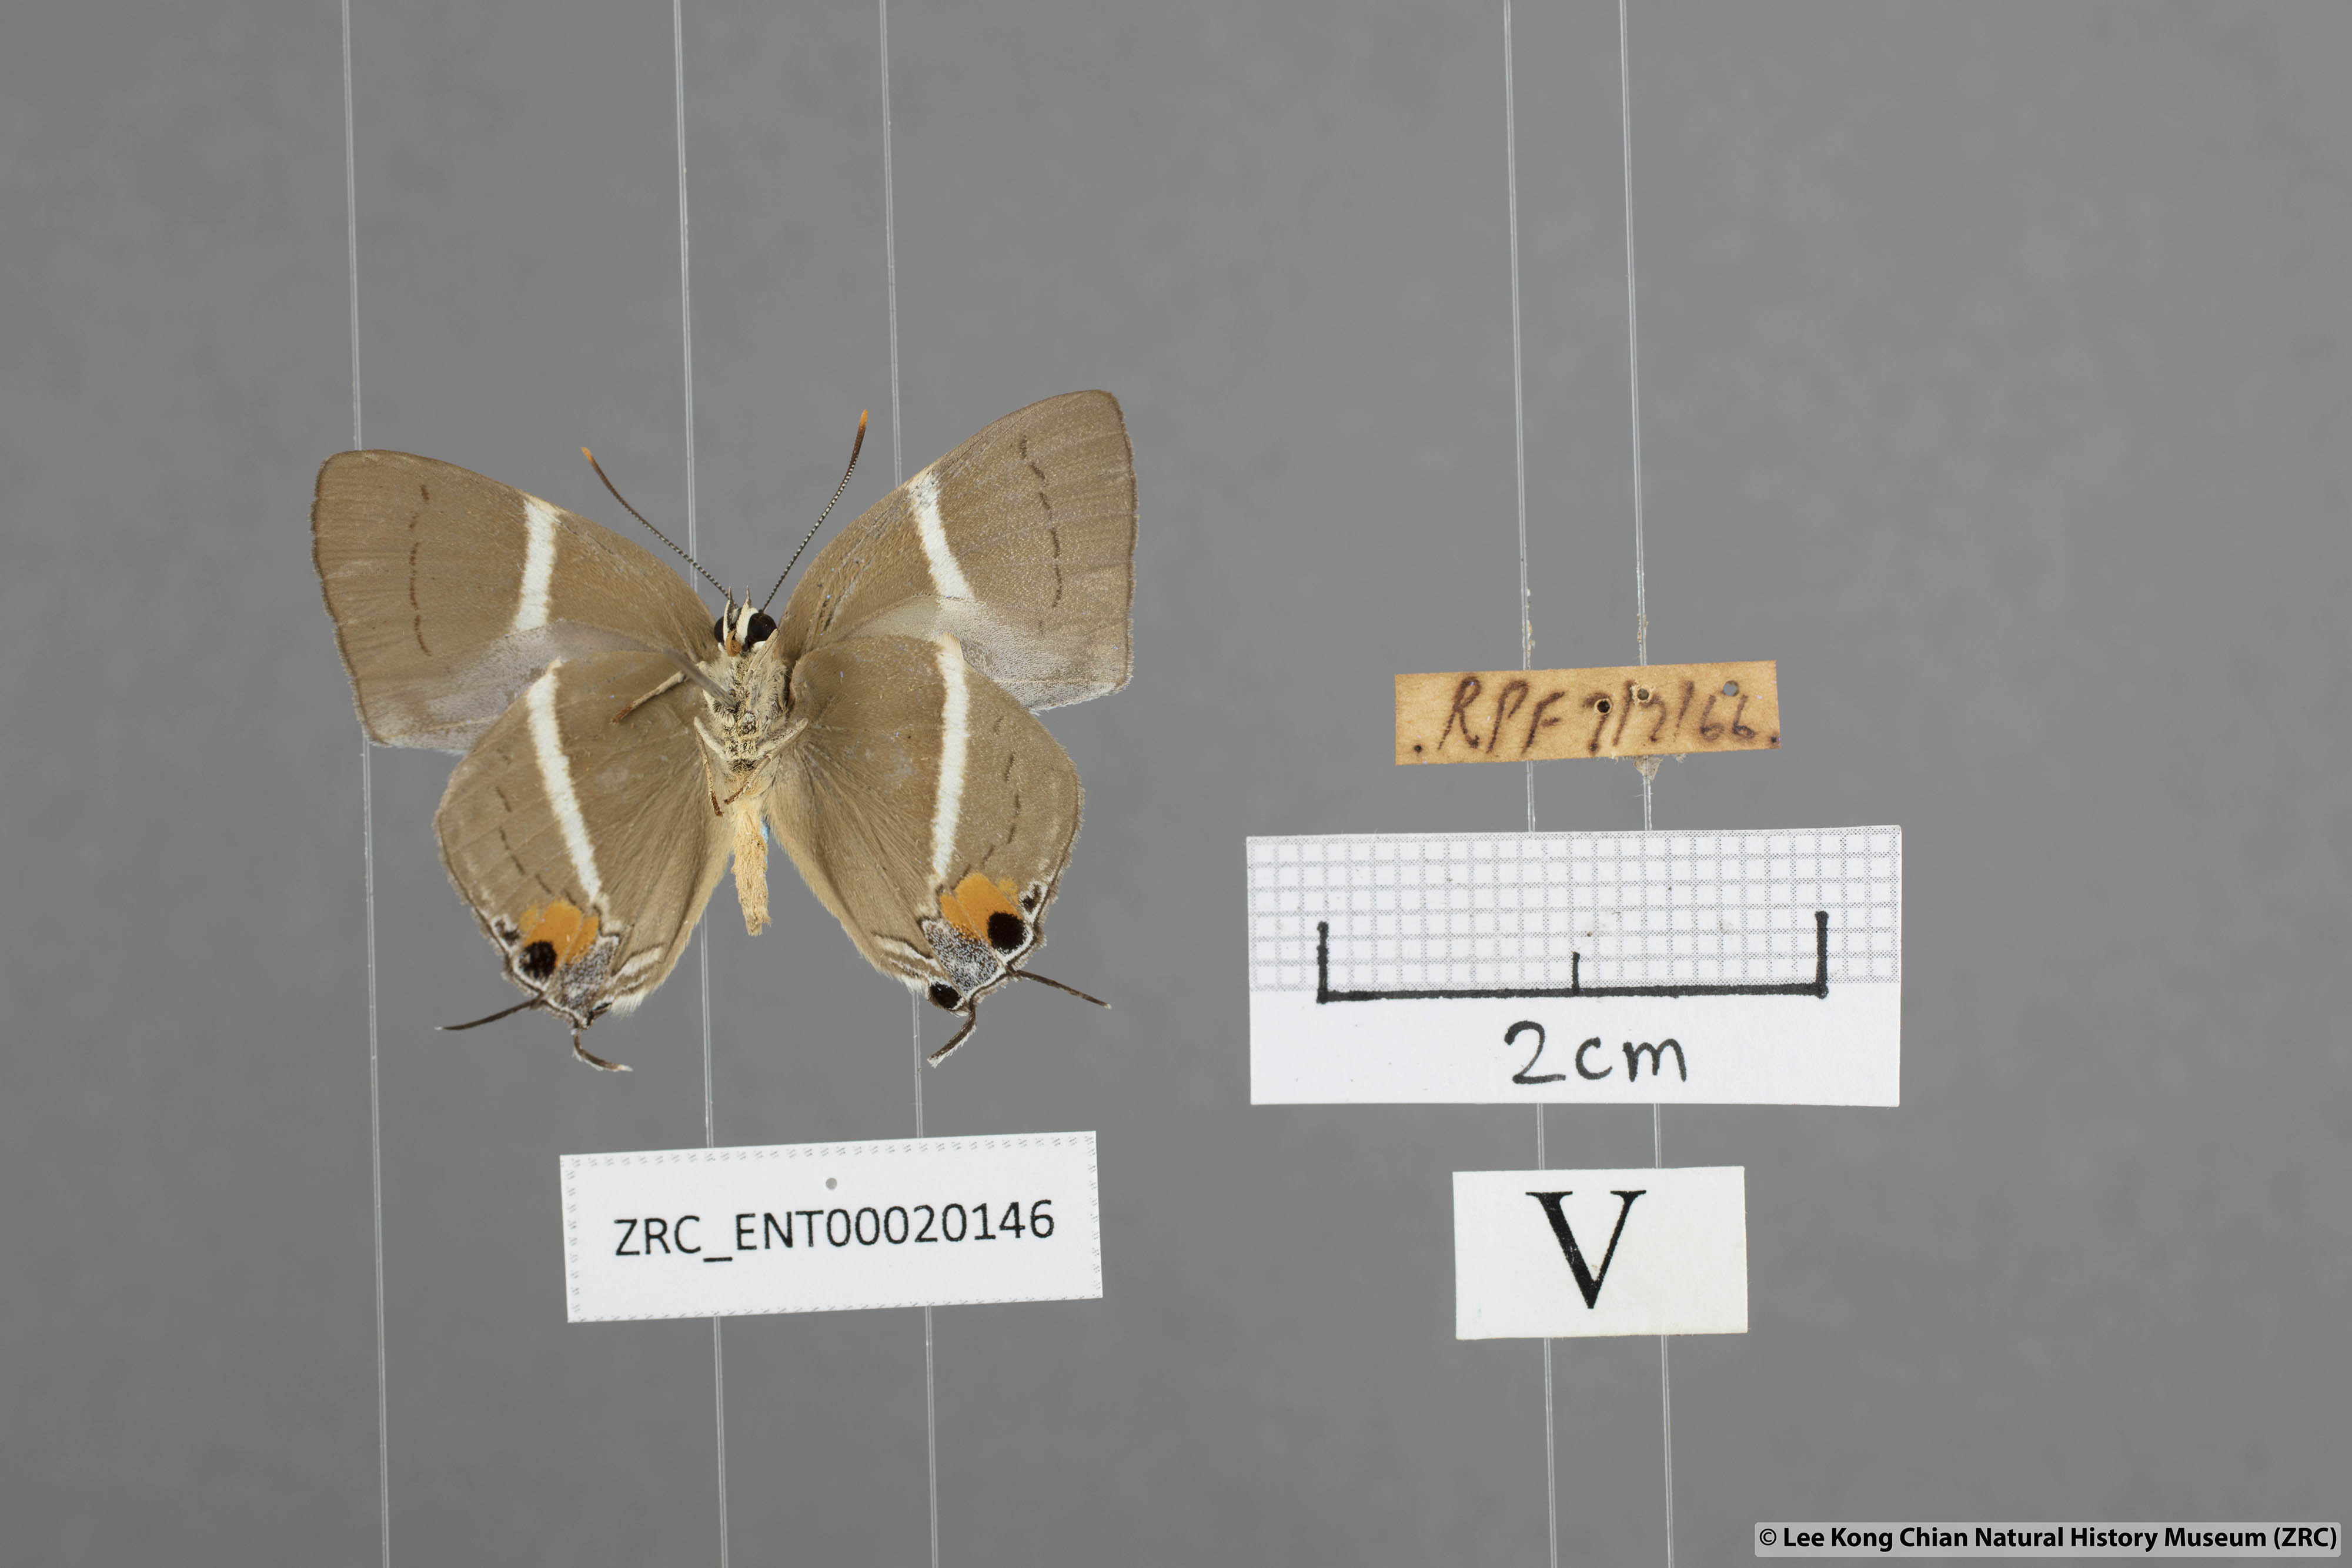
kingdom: Animalia
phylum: Arthropoda
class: Insecta
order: Lepidoptera
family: Lycaenidae
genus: Dacalana
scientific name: Dacalana sinhara
